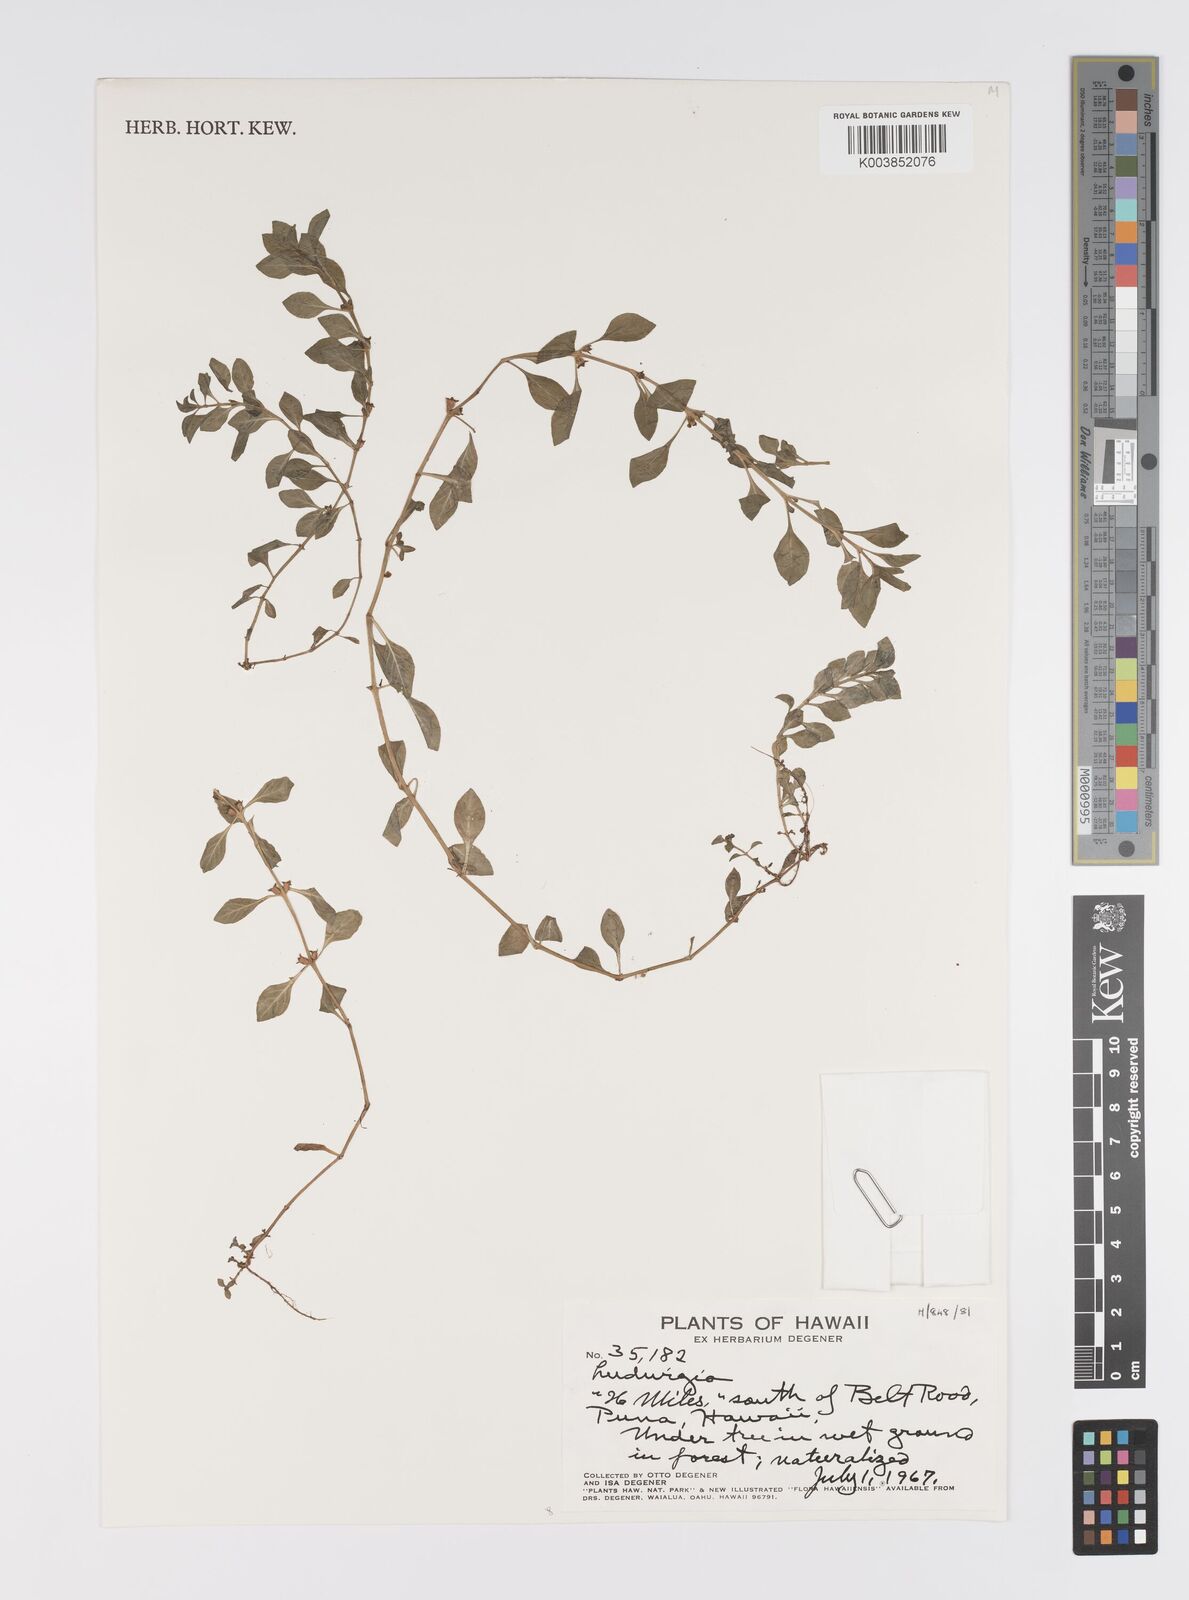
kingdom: Plantae
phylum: Tracheophyta
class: Magnoliopsida
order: Myrtales
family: Onagraceae
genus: Ludwigia
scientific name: Ludwigia
